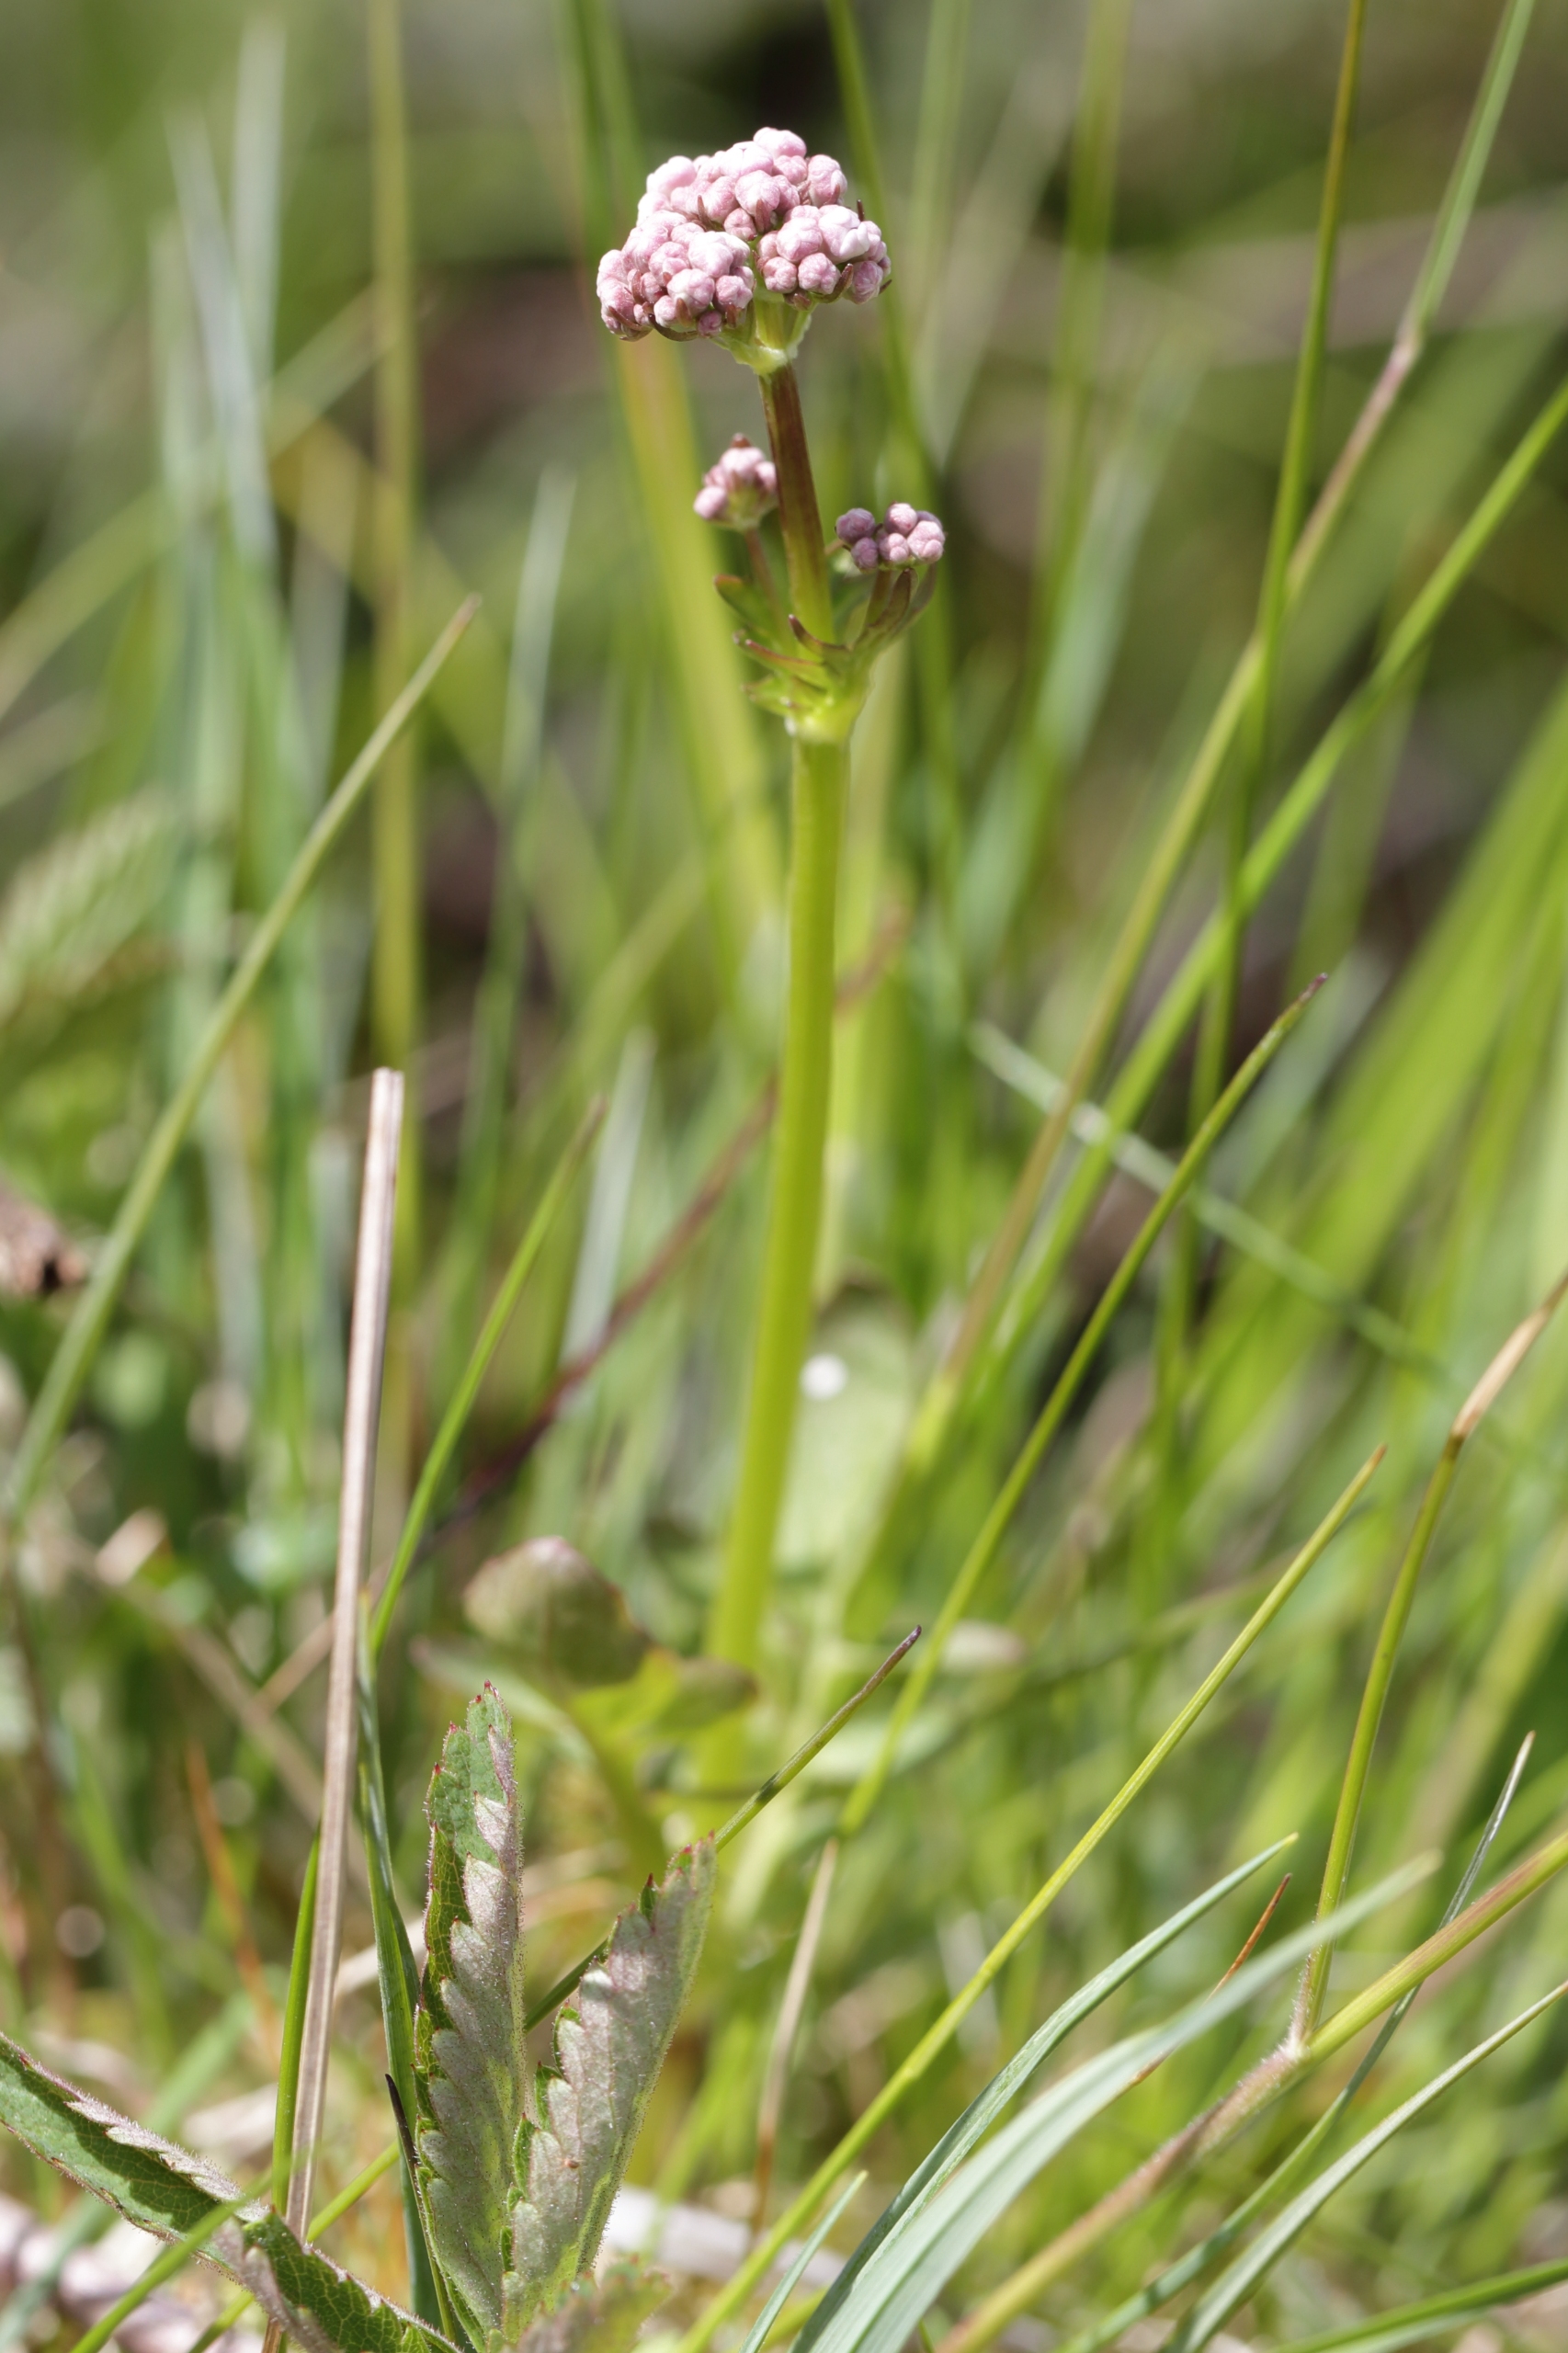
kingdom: Plantae
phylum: Tracheophyta
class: Magnoliopsida
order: Dipsacales
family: Caprifoliaceae
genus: Valeriana
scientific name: Valeriana dioica
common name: Tvebo baldrian
